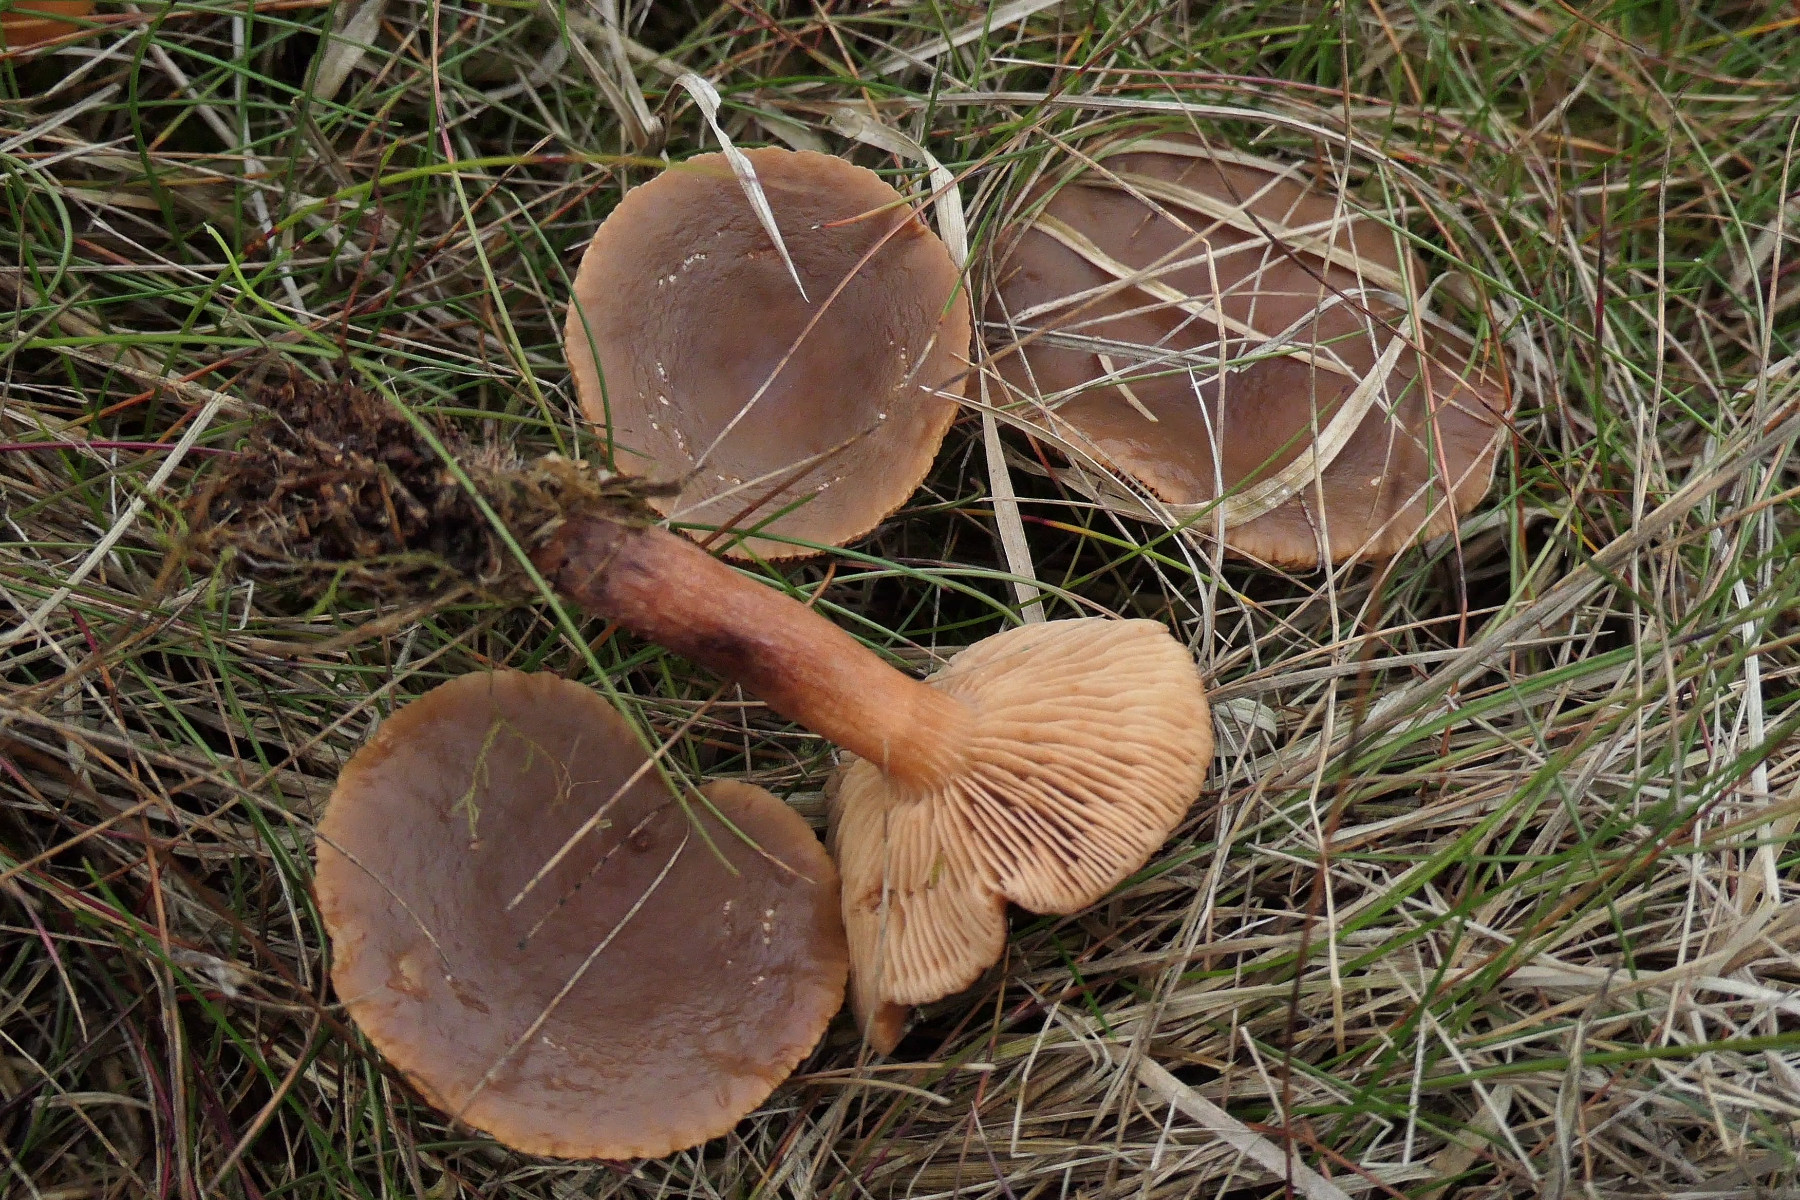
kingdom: Fungi
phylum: Basidiomycota
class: Agaricomycetes
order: Russulales
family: Russulaceae
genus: Lactarius
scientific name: Lactarius hepaticus
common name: leverbrun mælkehat
